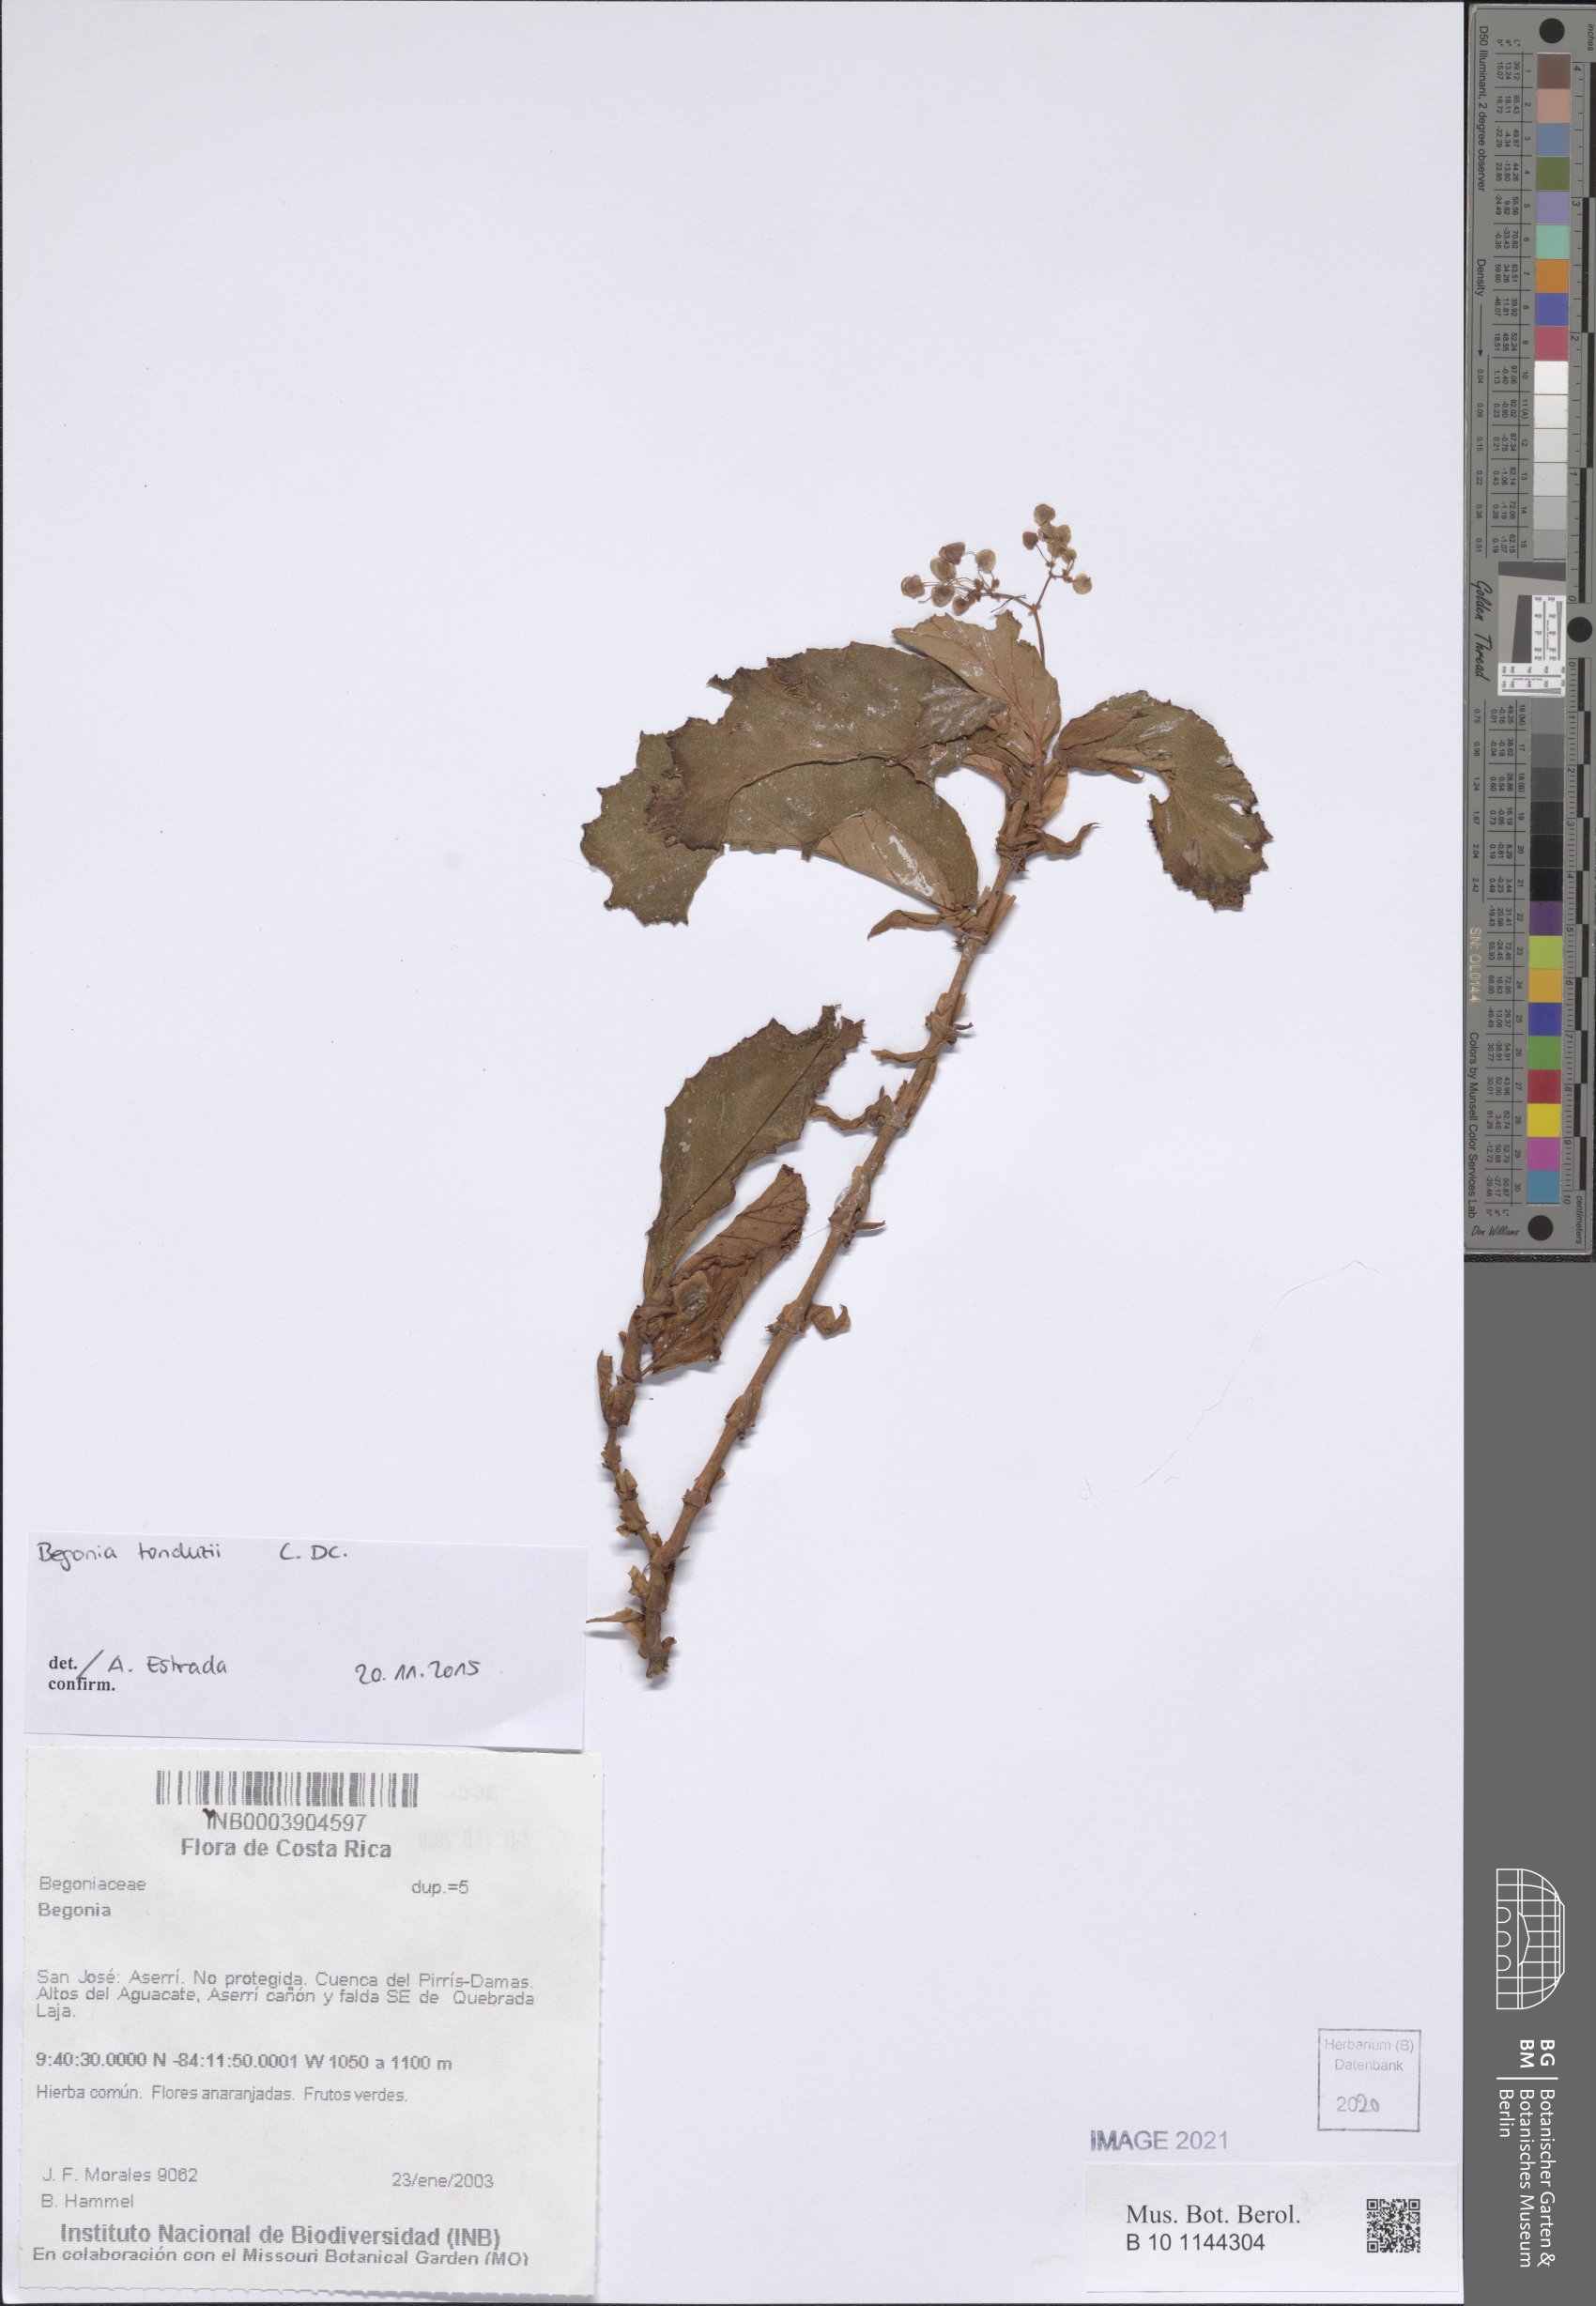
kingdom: Plantae
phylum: Tracheophyta
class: Magnoliopsida
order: Cucurbitales
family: Begoniaceae
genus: Begonia
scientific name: Begonia
